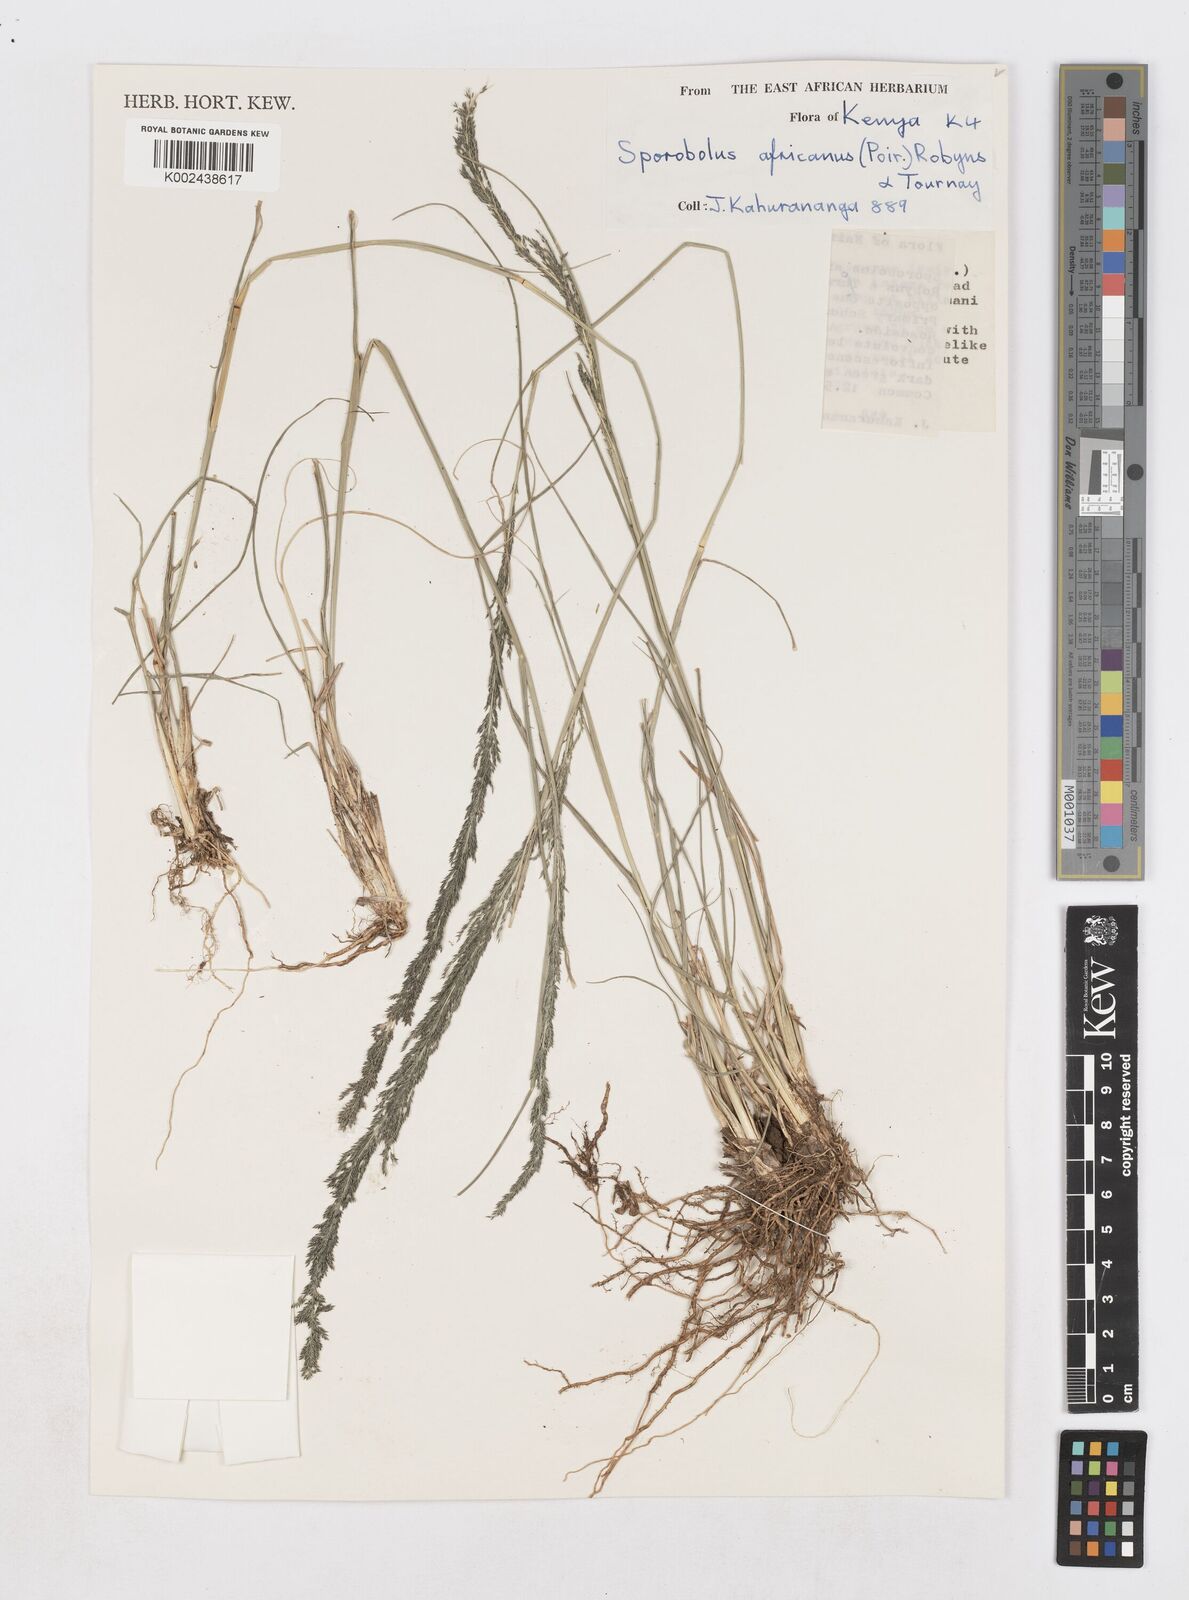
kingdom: Plantae
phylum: Tracheophyta
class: Liliopsida
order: Poales
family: Poaceae
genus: Sporobolus
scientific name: Sporobolus africanus
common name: African dropseed
